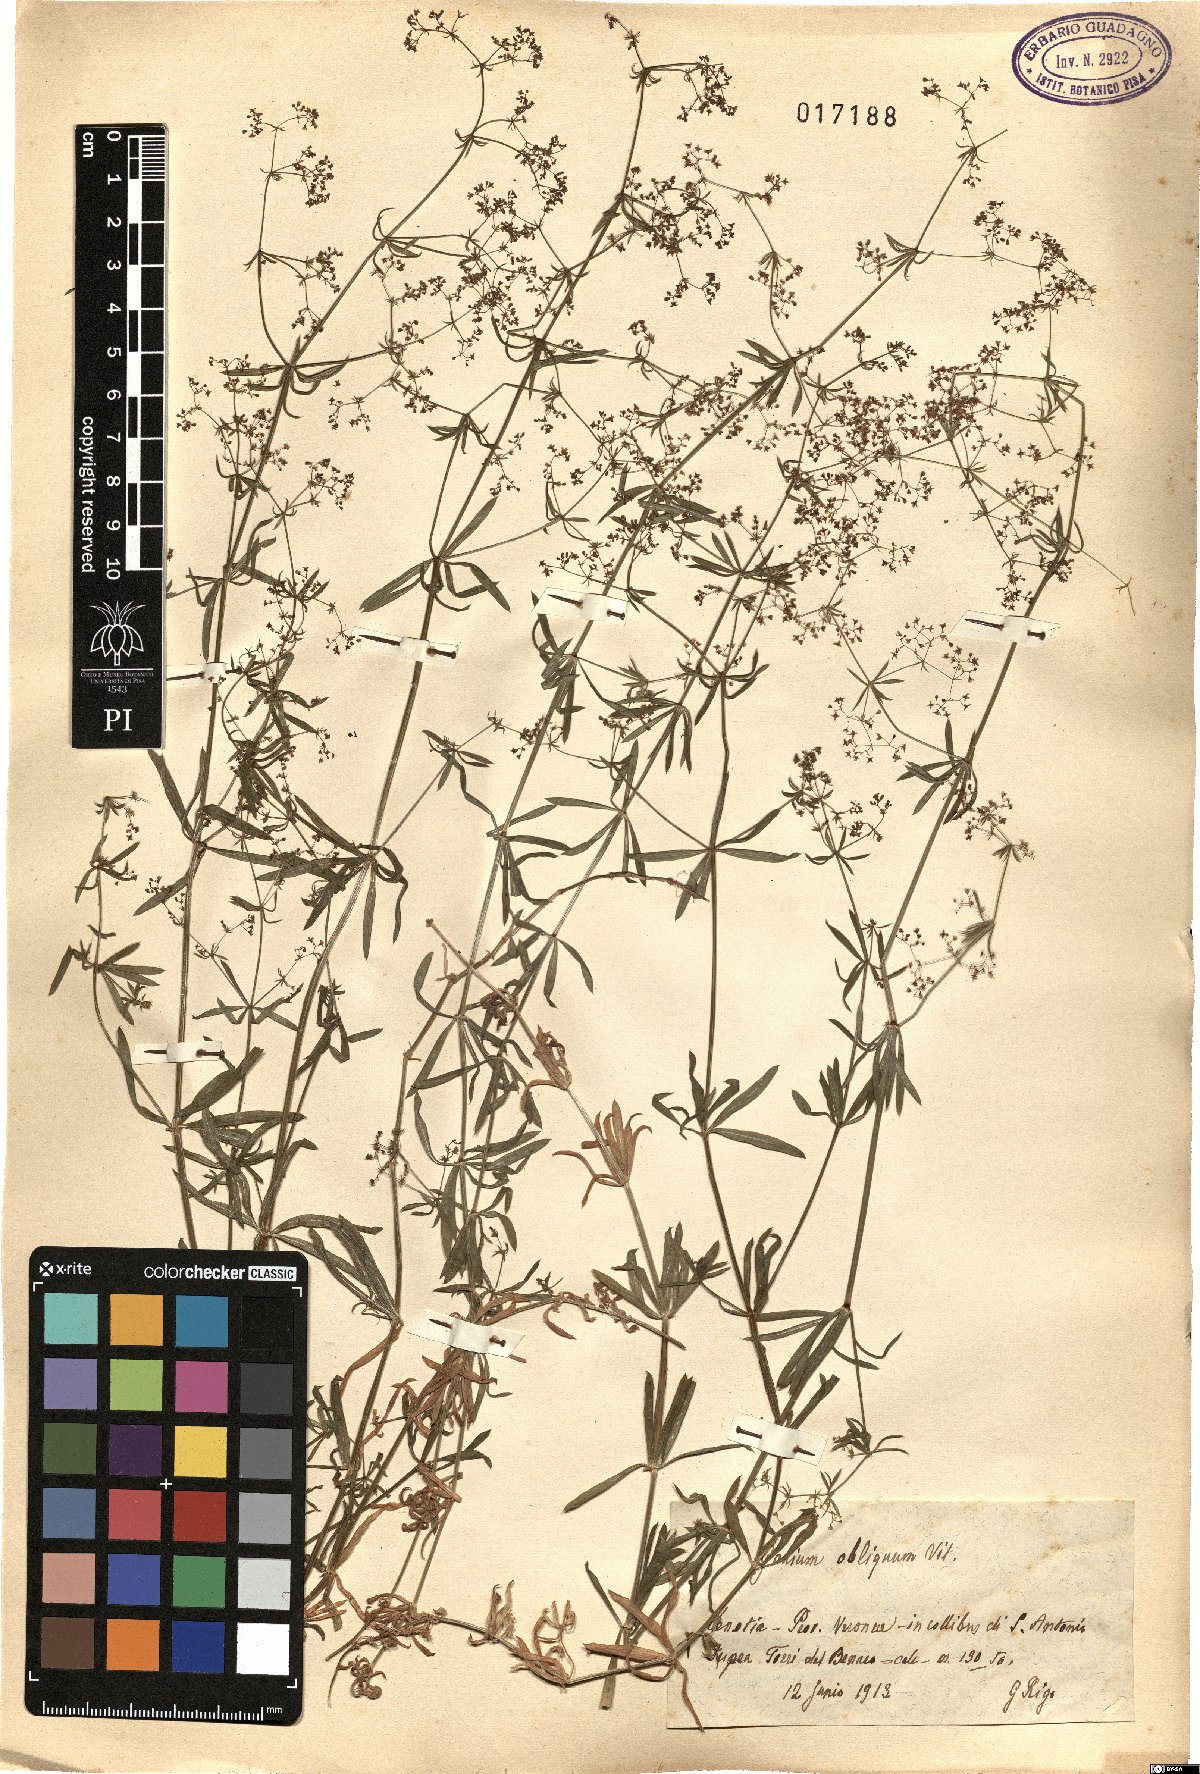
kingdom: Plantae
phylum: Tracheophyta
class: Magnoliopsida
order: Gentianales
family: Rubiaceae
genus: Galium
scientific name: Galium obliquum
